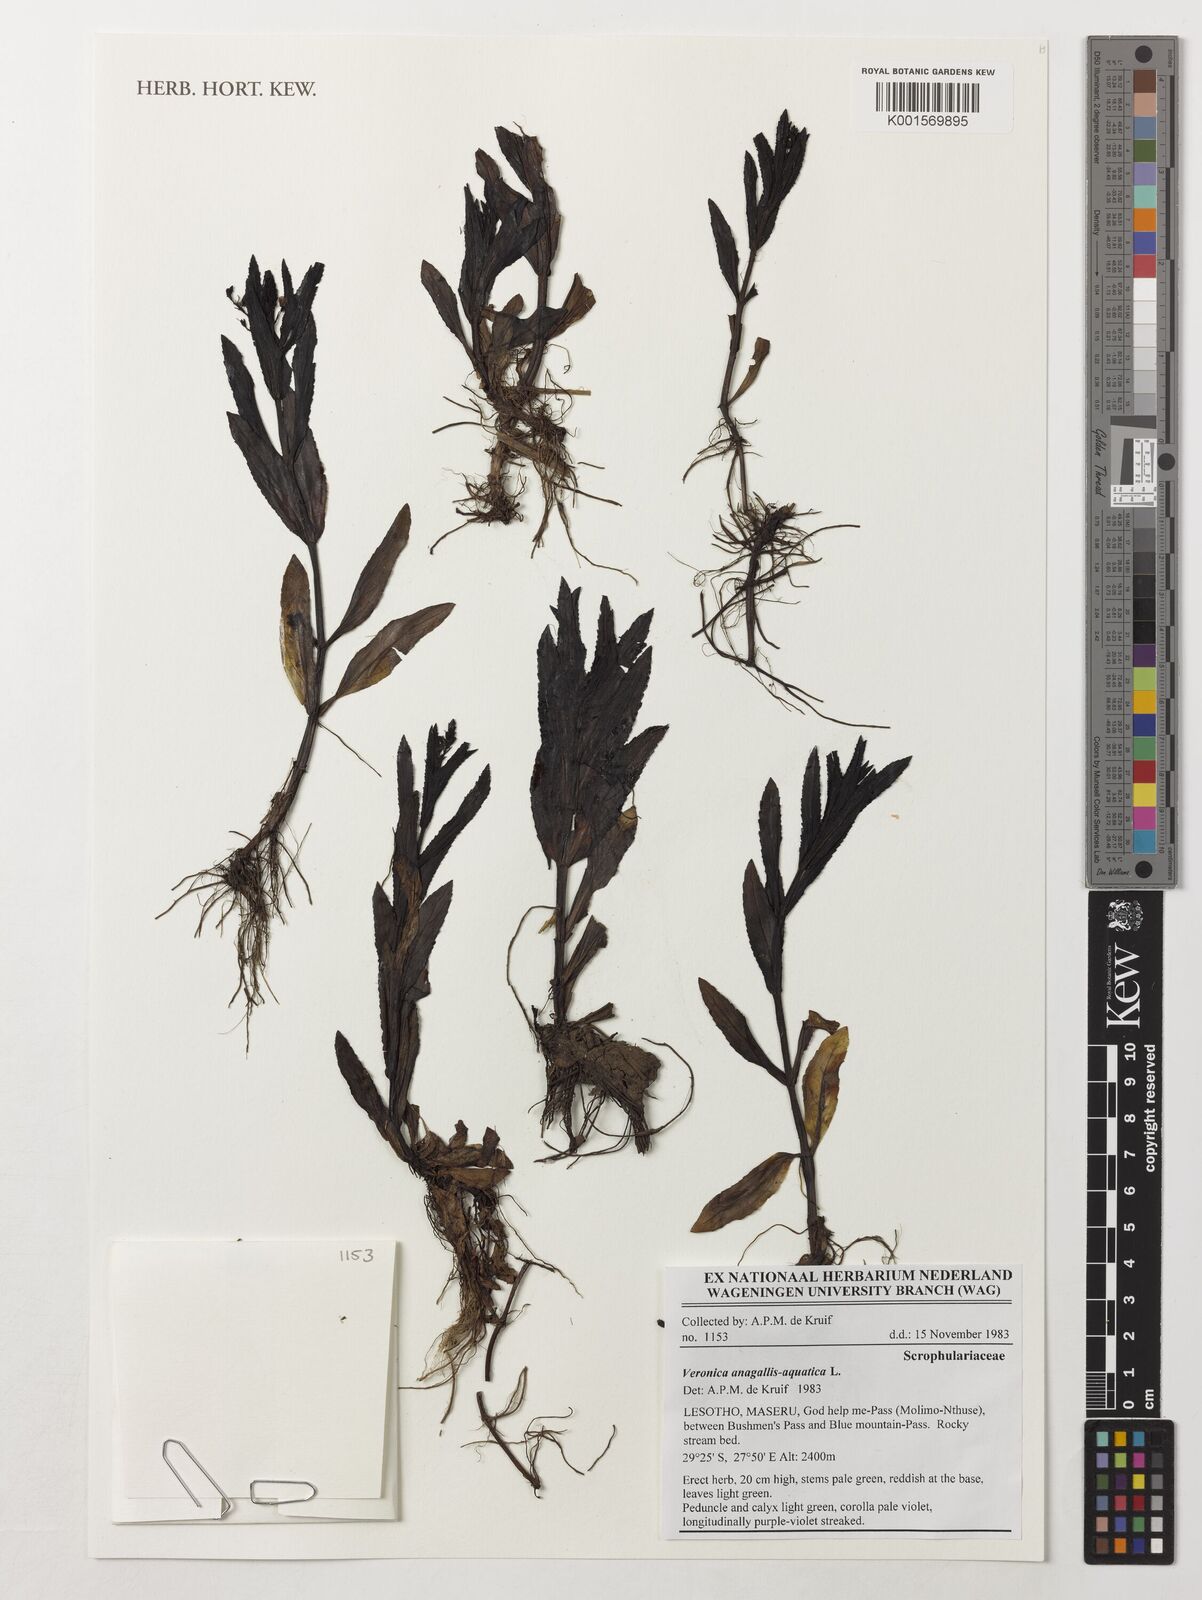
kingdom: Plantae
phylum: Tracheophyta
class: Magnoliopsida
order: Lamiales
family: Plantaginaceae
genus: Veronica
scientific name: Veronica anagallis-aquatica
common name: Water speedwell
